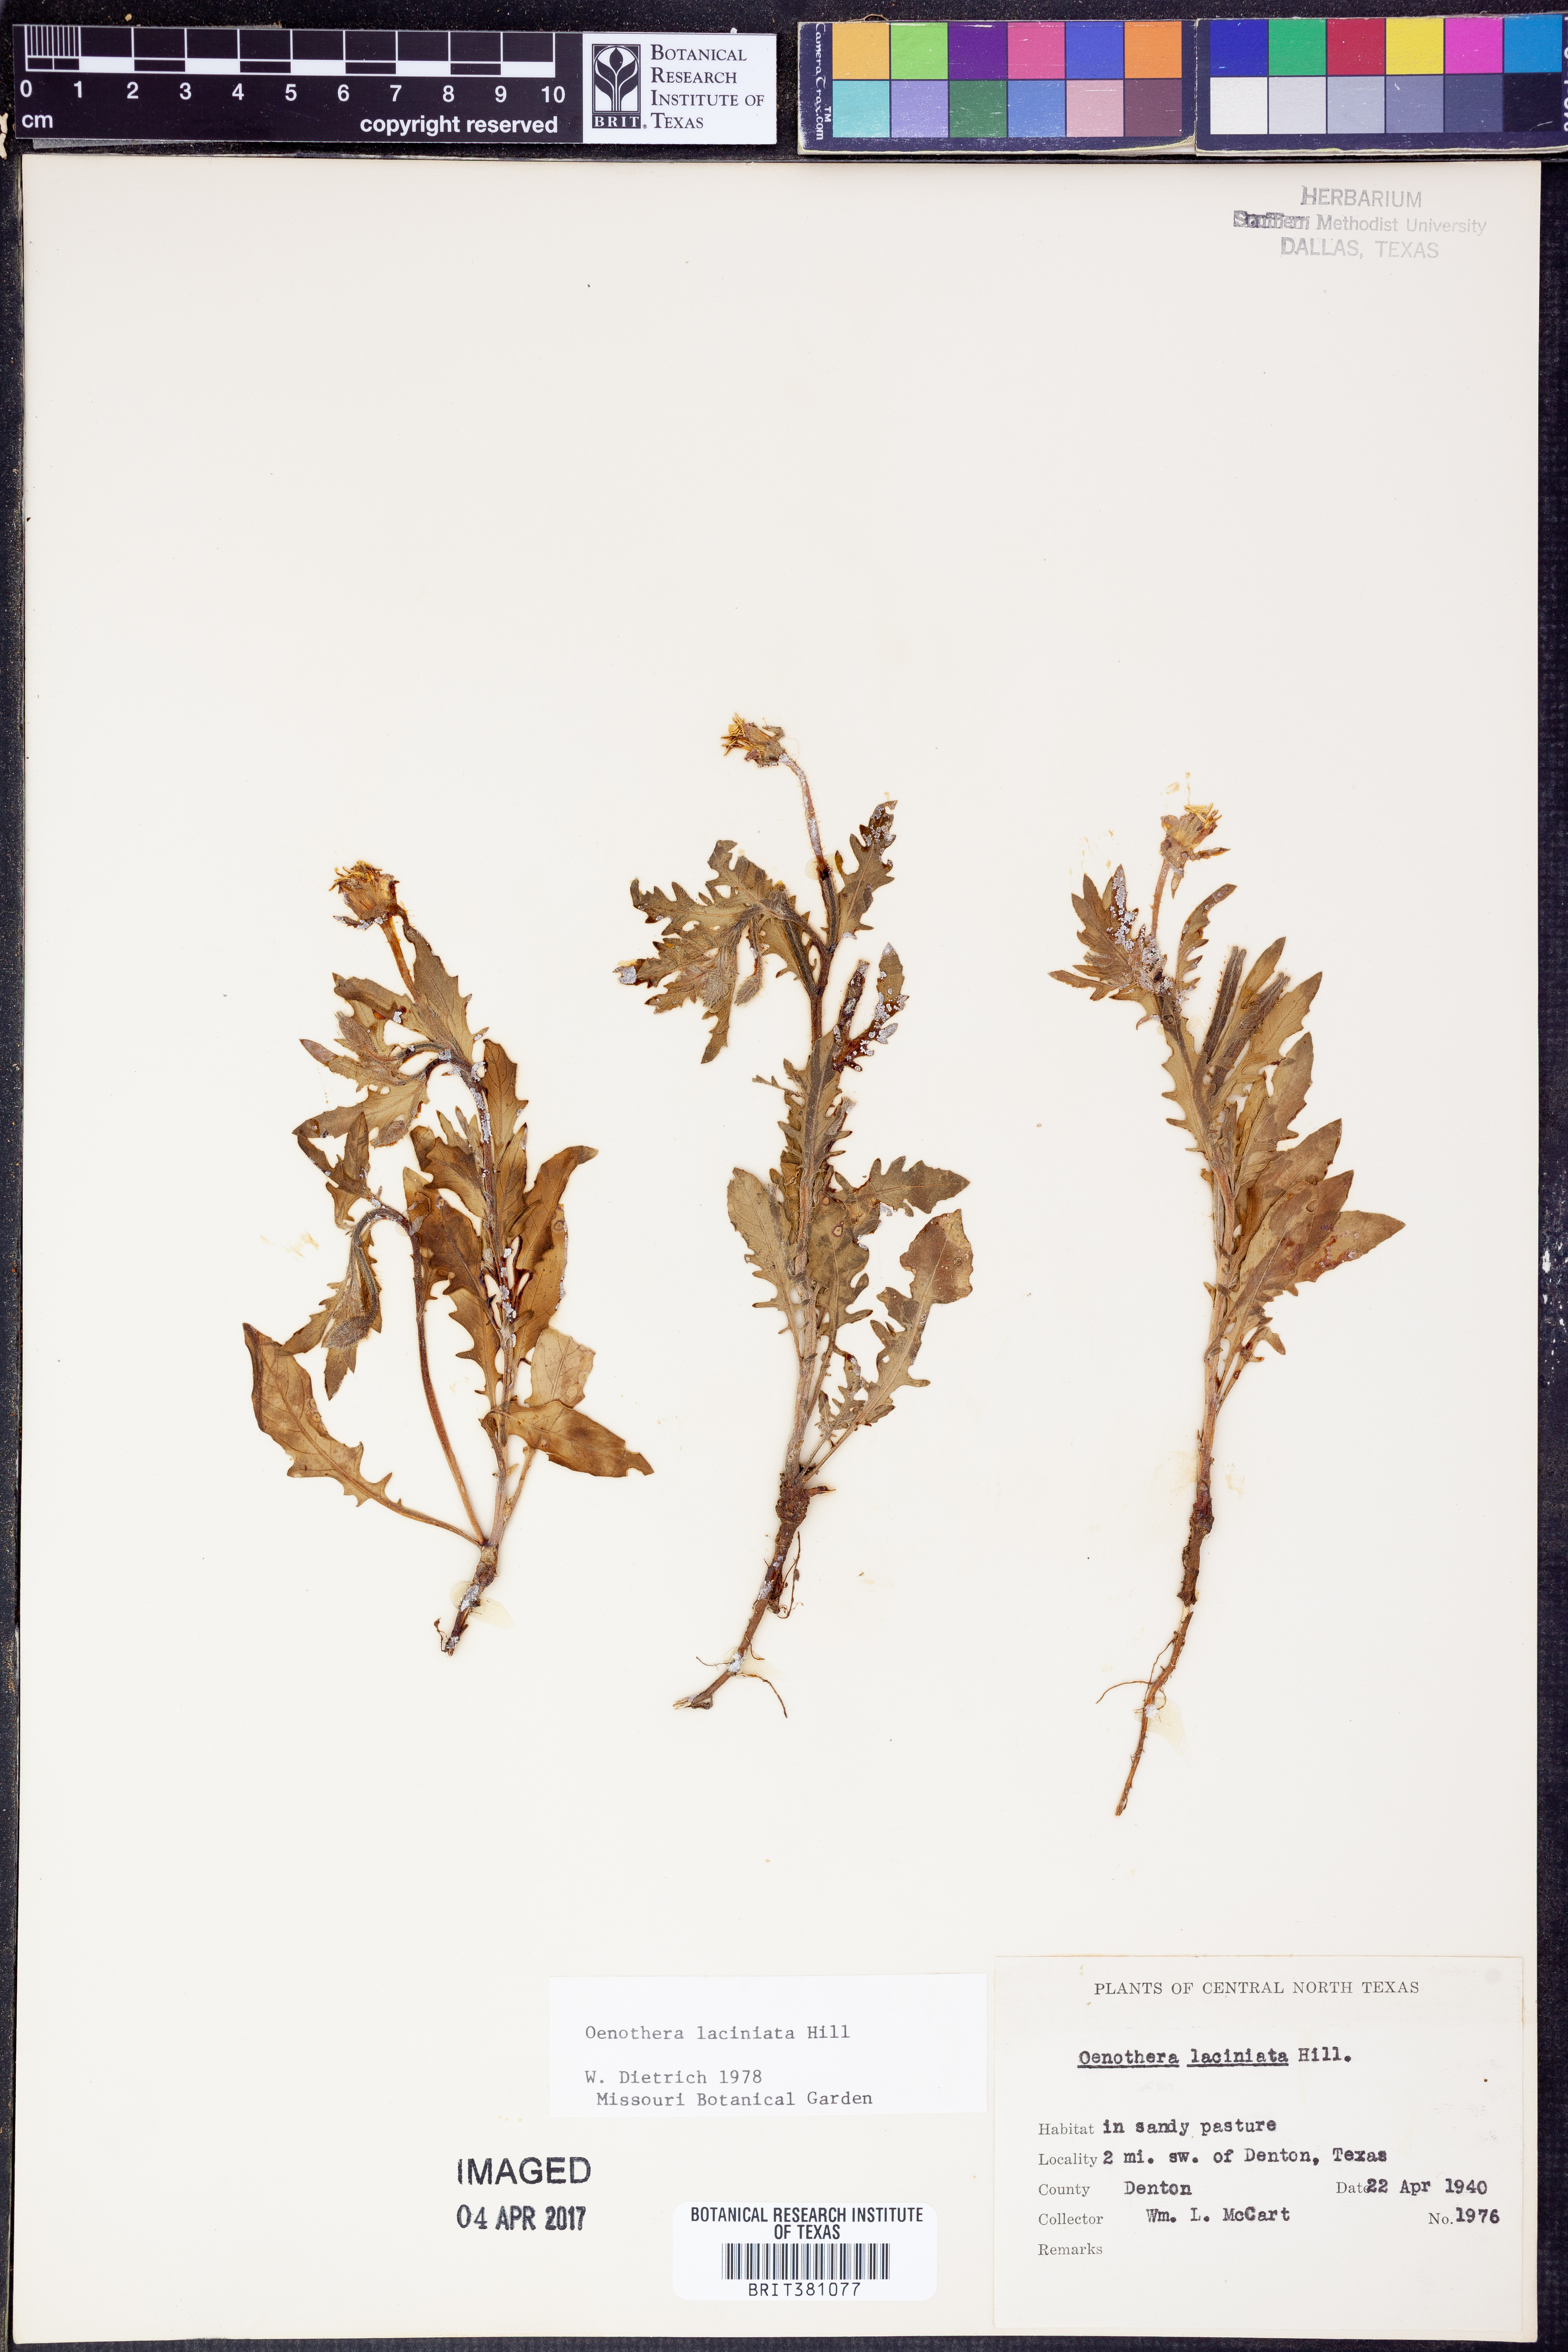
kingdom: Plantae
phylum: Tracheophyta
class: Magnoliopsida
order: Myrtales
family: Onagraceae
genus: Oenothera
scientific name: Oenothera laciniata
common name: Cut-leaved evening-primrose
